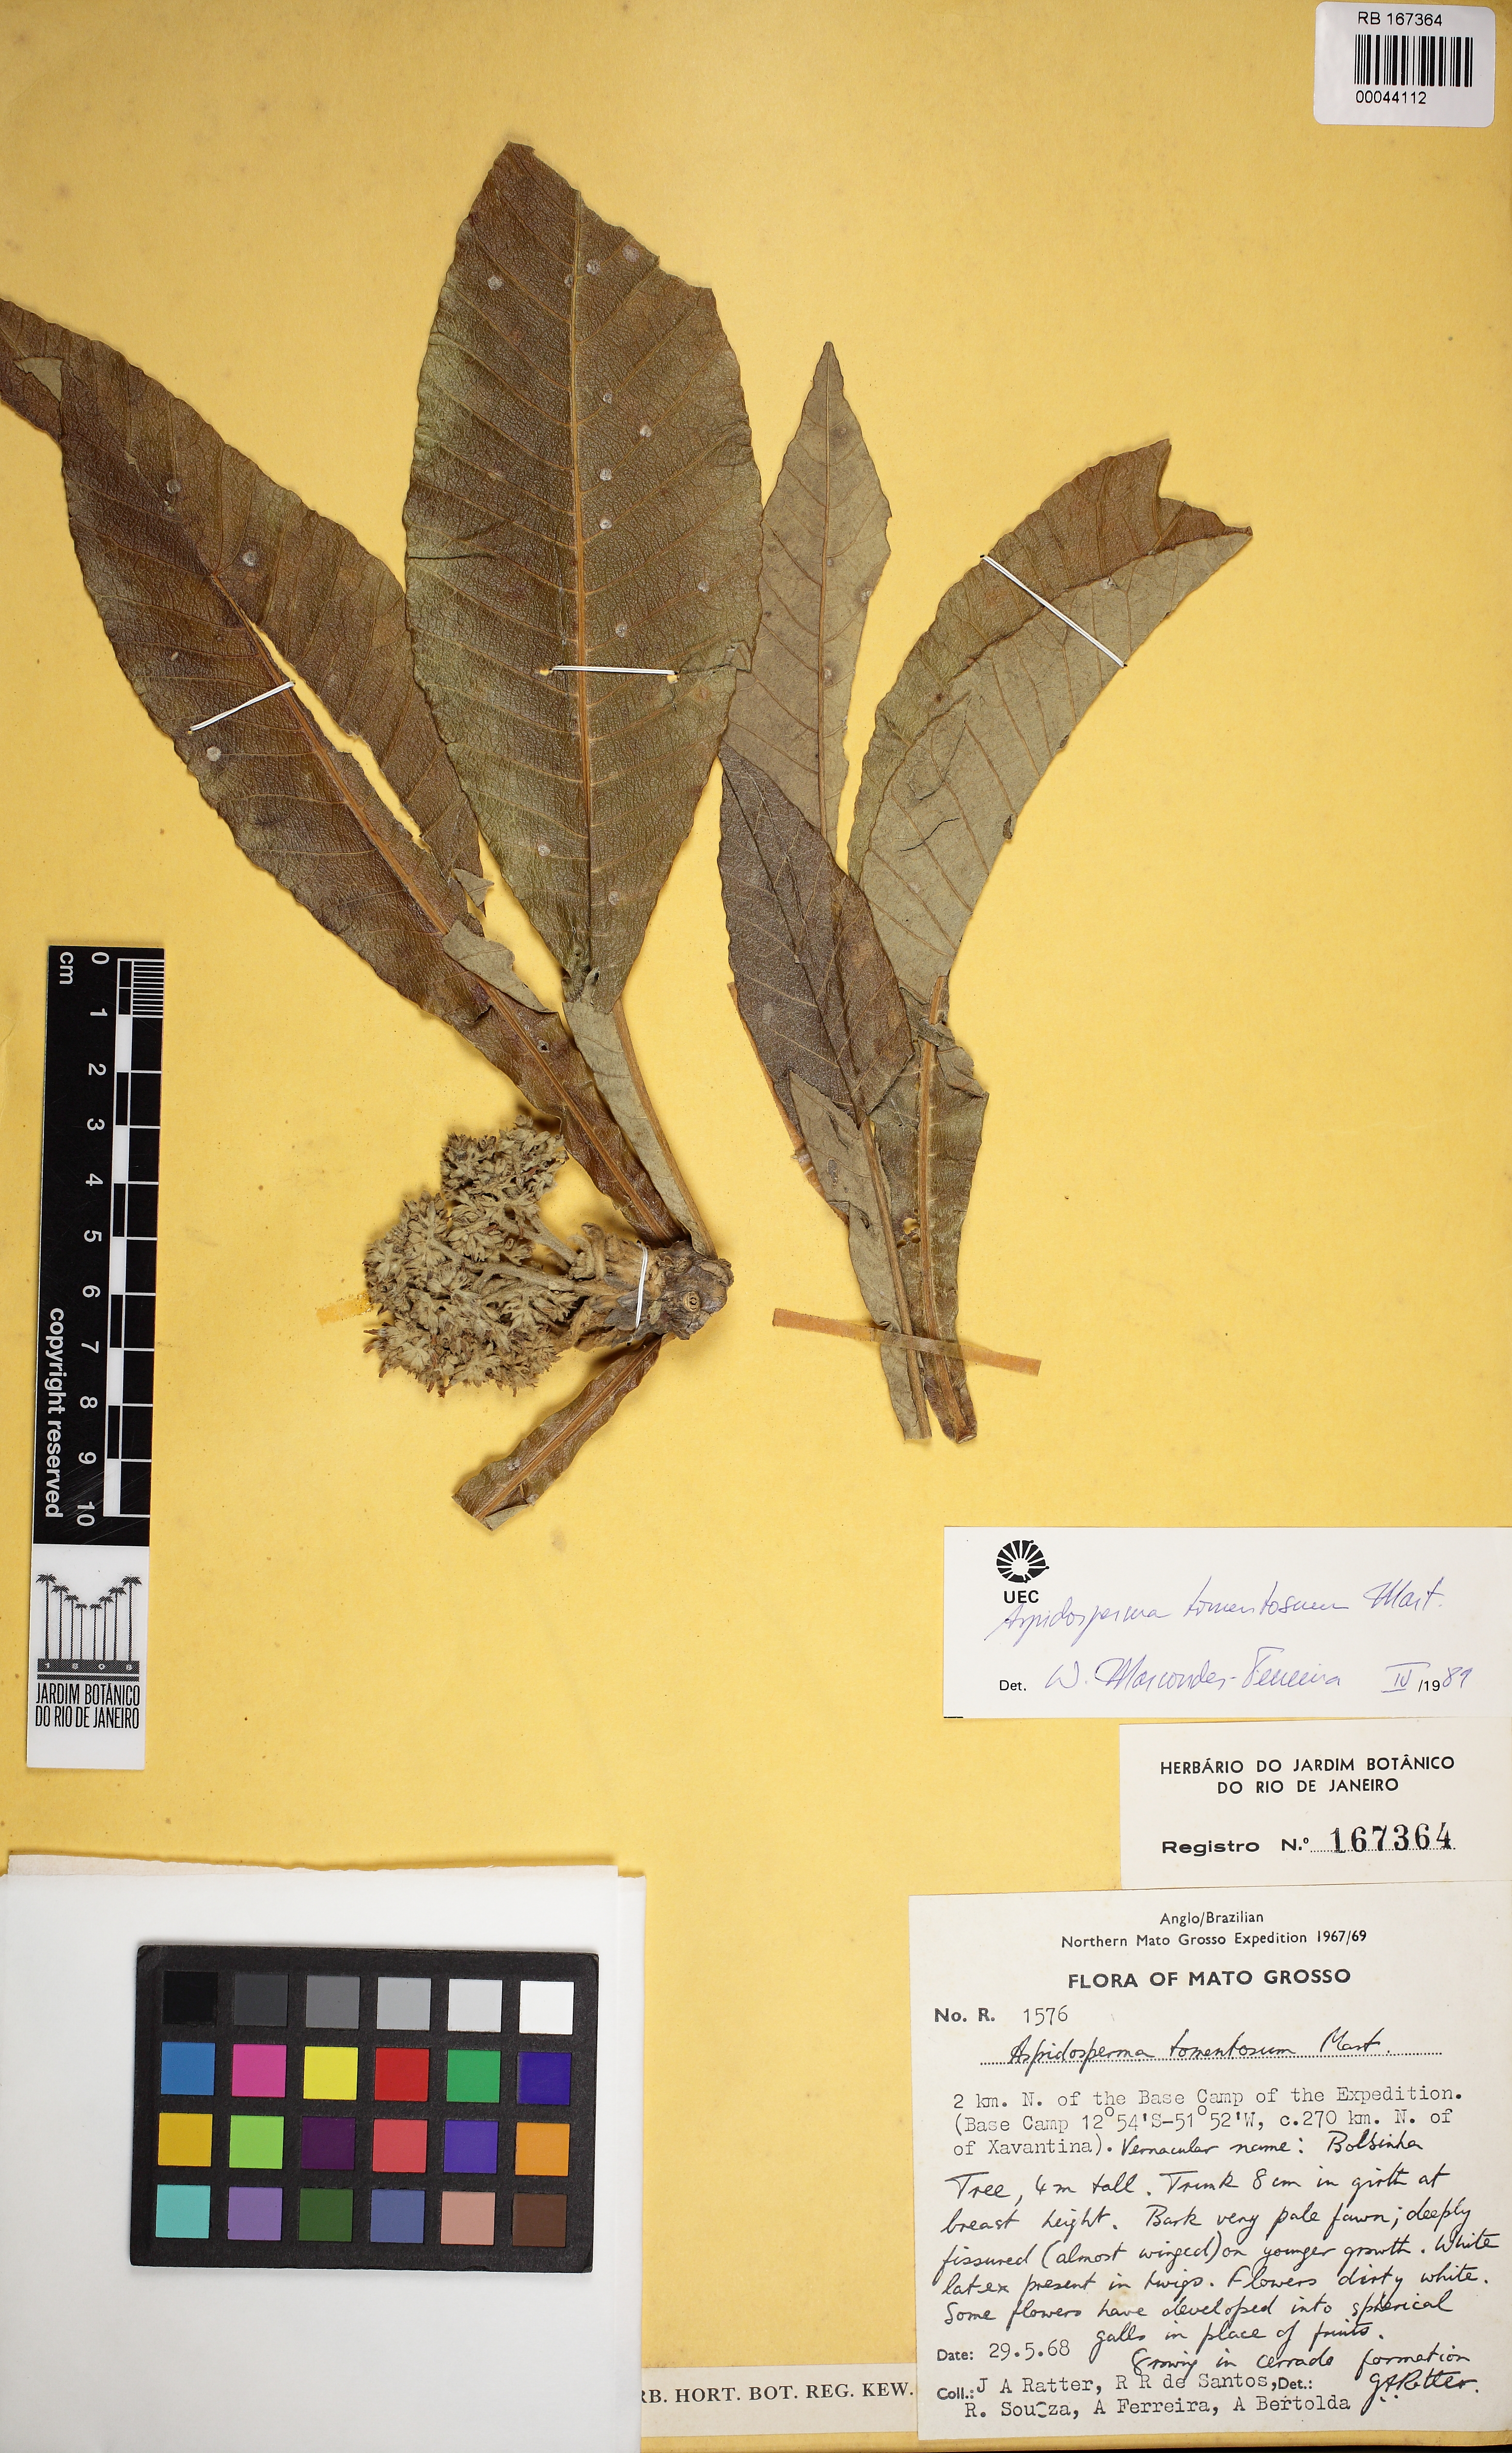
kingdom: Plantae
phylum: Tracheophyta
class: Magnoliopsida
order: Gentianales
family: Apocynaceae
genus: Aspidosperma
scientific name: Aspidosperma tomentosum
